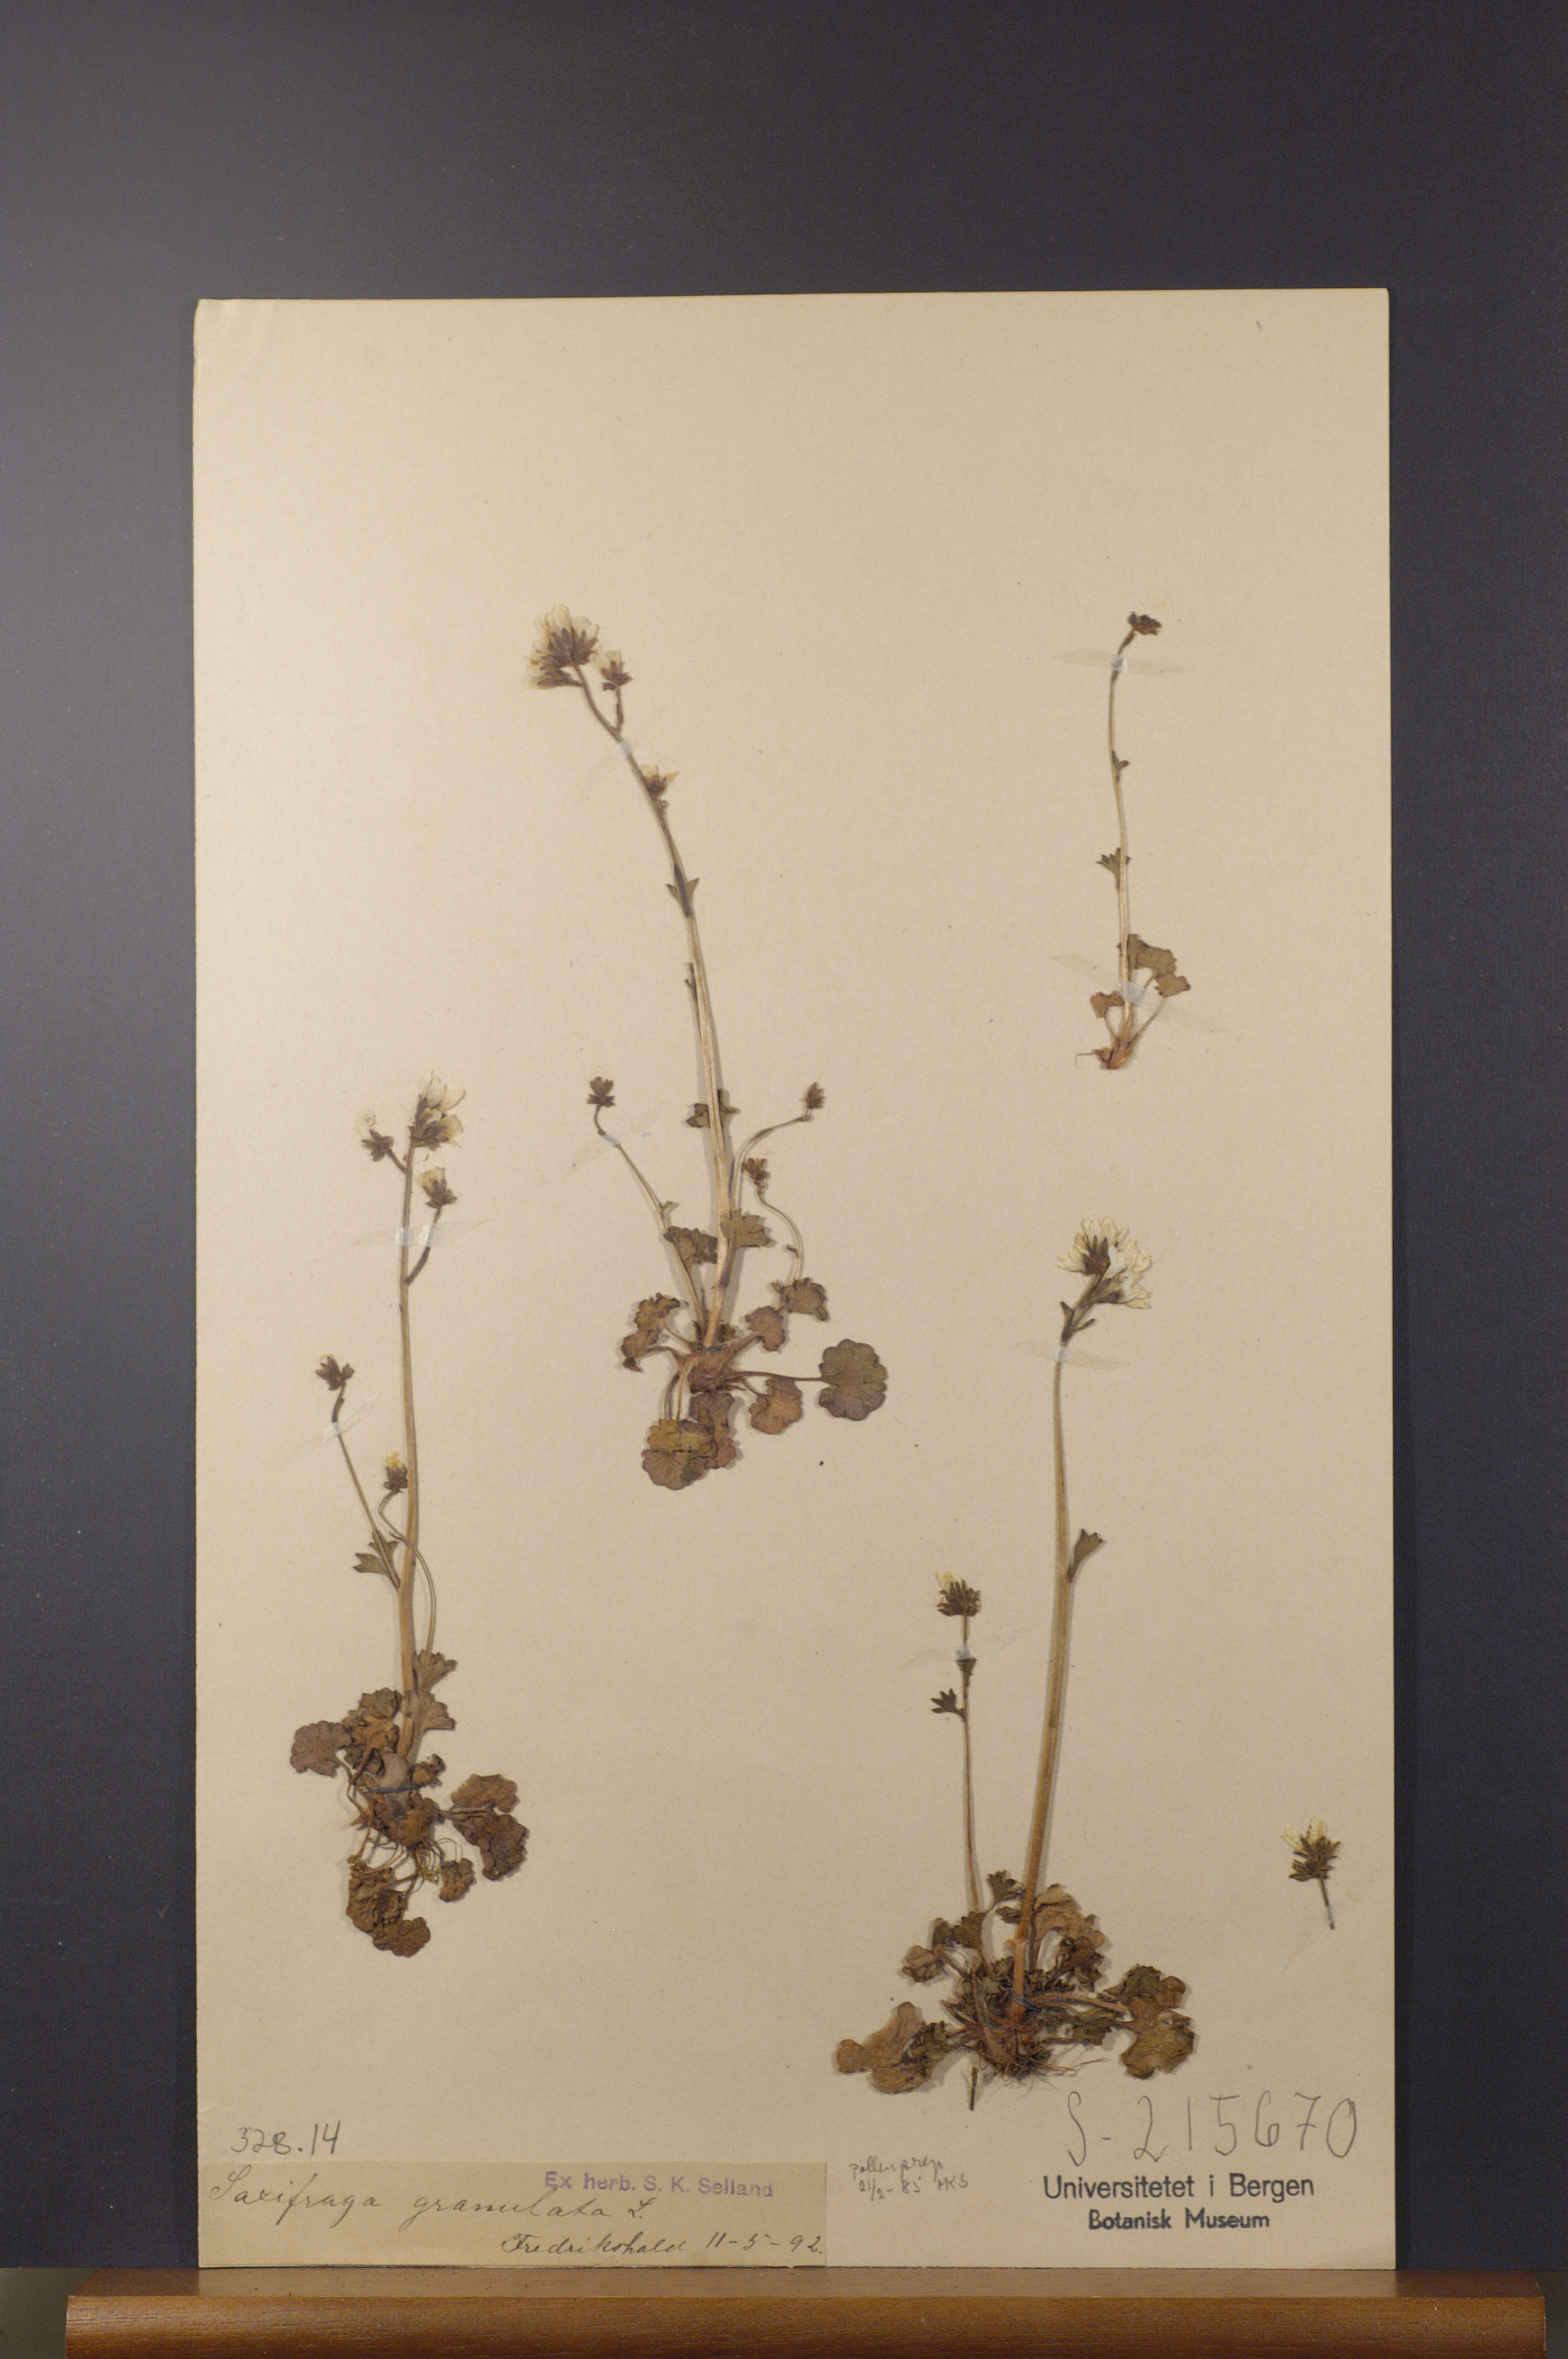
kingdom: Plantae
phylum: Tracheophyta
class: Magnoliopsida
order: Saxifragales
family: Saxifragaceae
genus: Saxifraga
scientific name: Saxifraga granulata
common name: Meadow saxifrage
